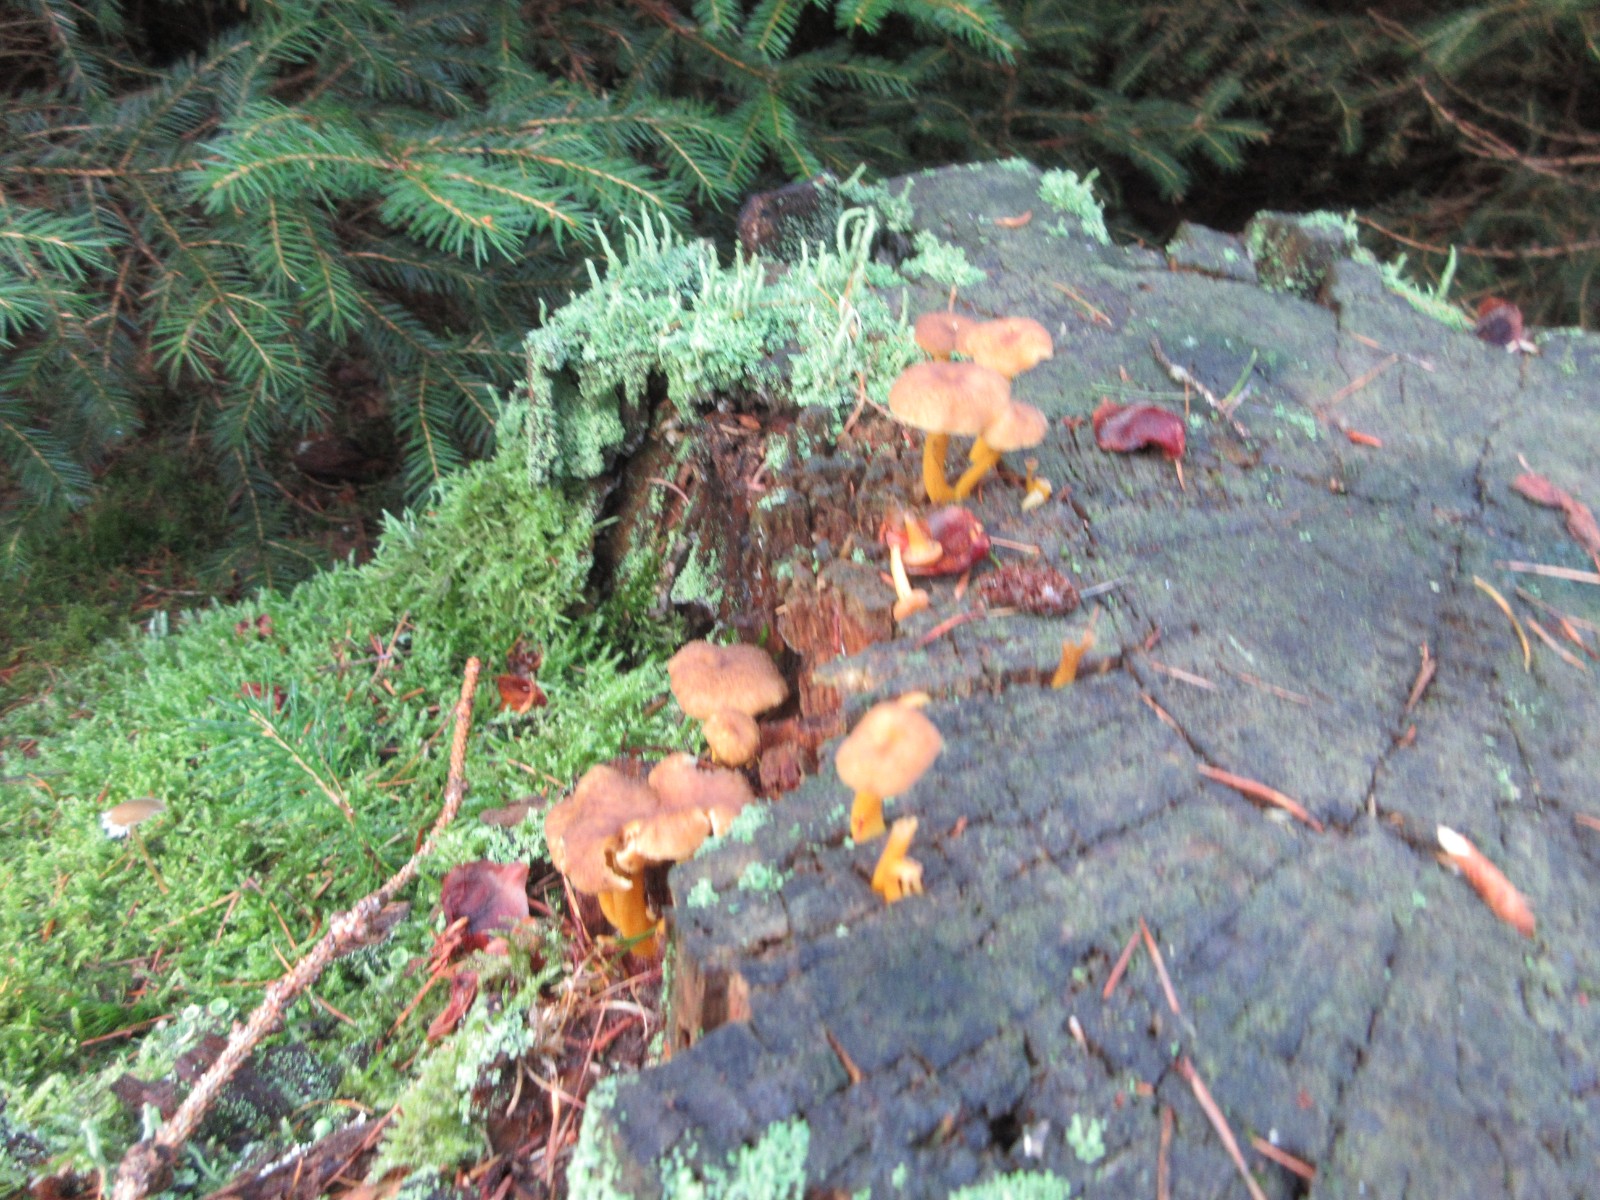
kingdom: Fungi
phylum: Basidiomycota
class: Agaricomycetes
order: Cantharellales
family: Hydnaceae
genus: Craterellus
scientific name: Craterellus tubaeformis
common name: tragt-kantarel
